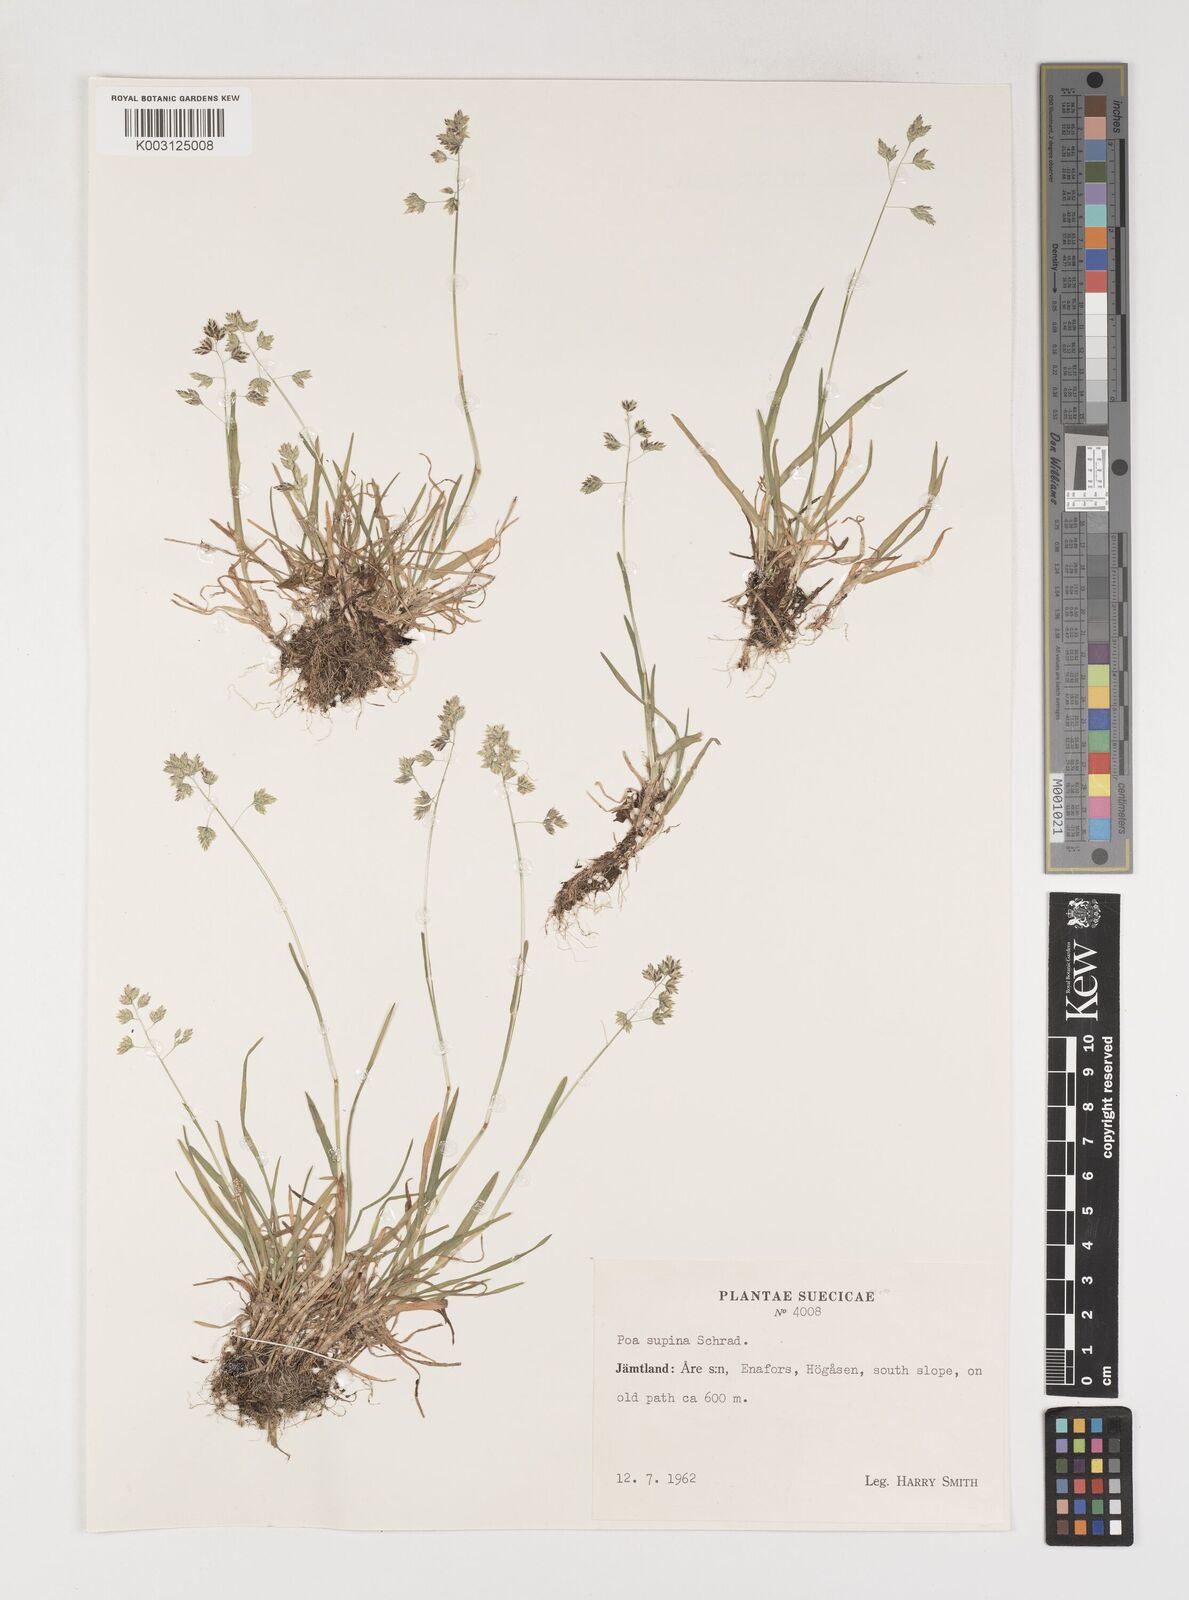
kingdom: Plantae
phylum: Tracheophyta
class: Liliopsida
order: Poales
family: Poaceae
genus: Poa
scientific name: Poa supina
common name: Supina bluegrass
